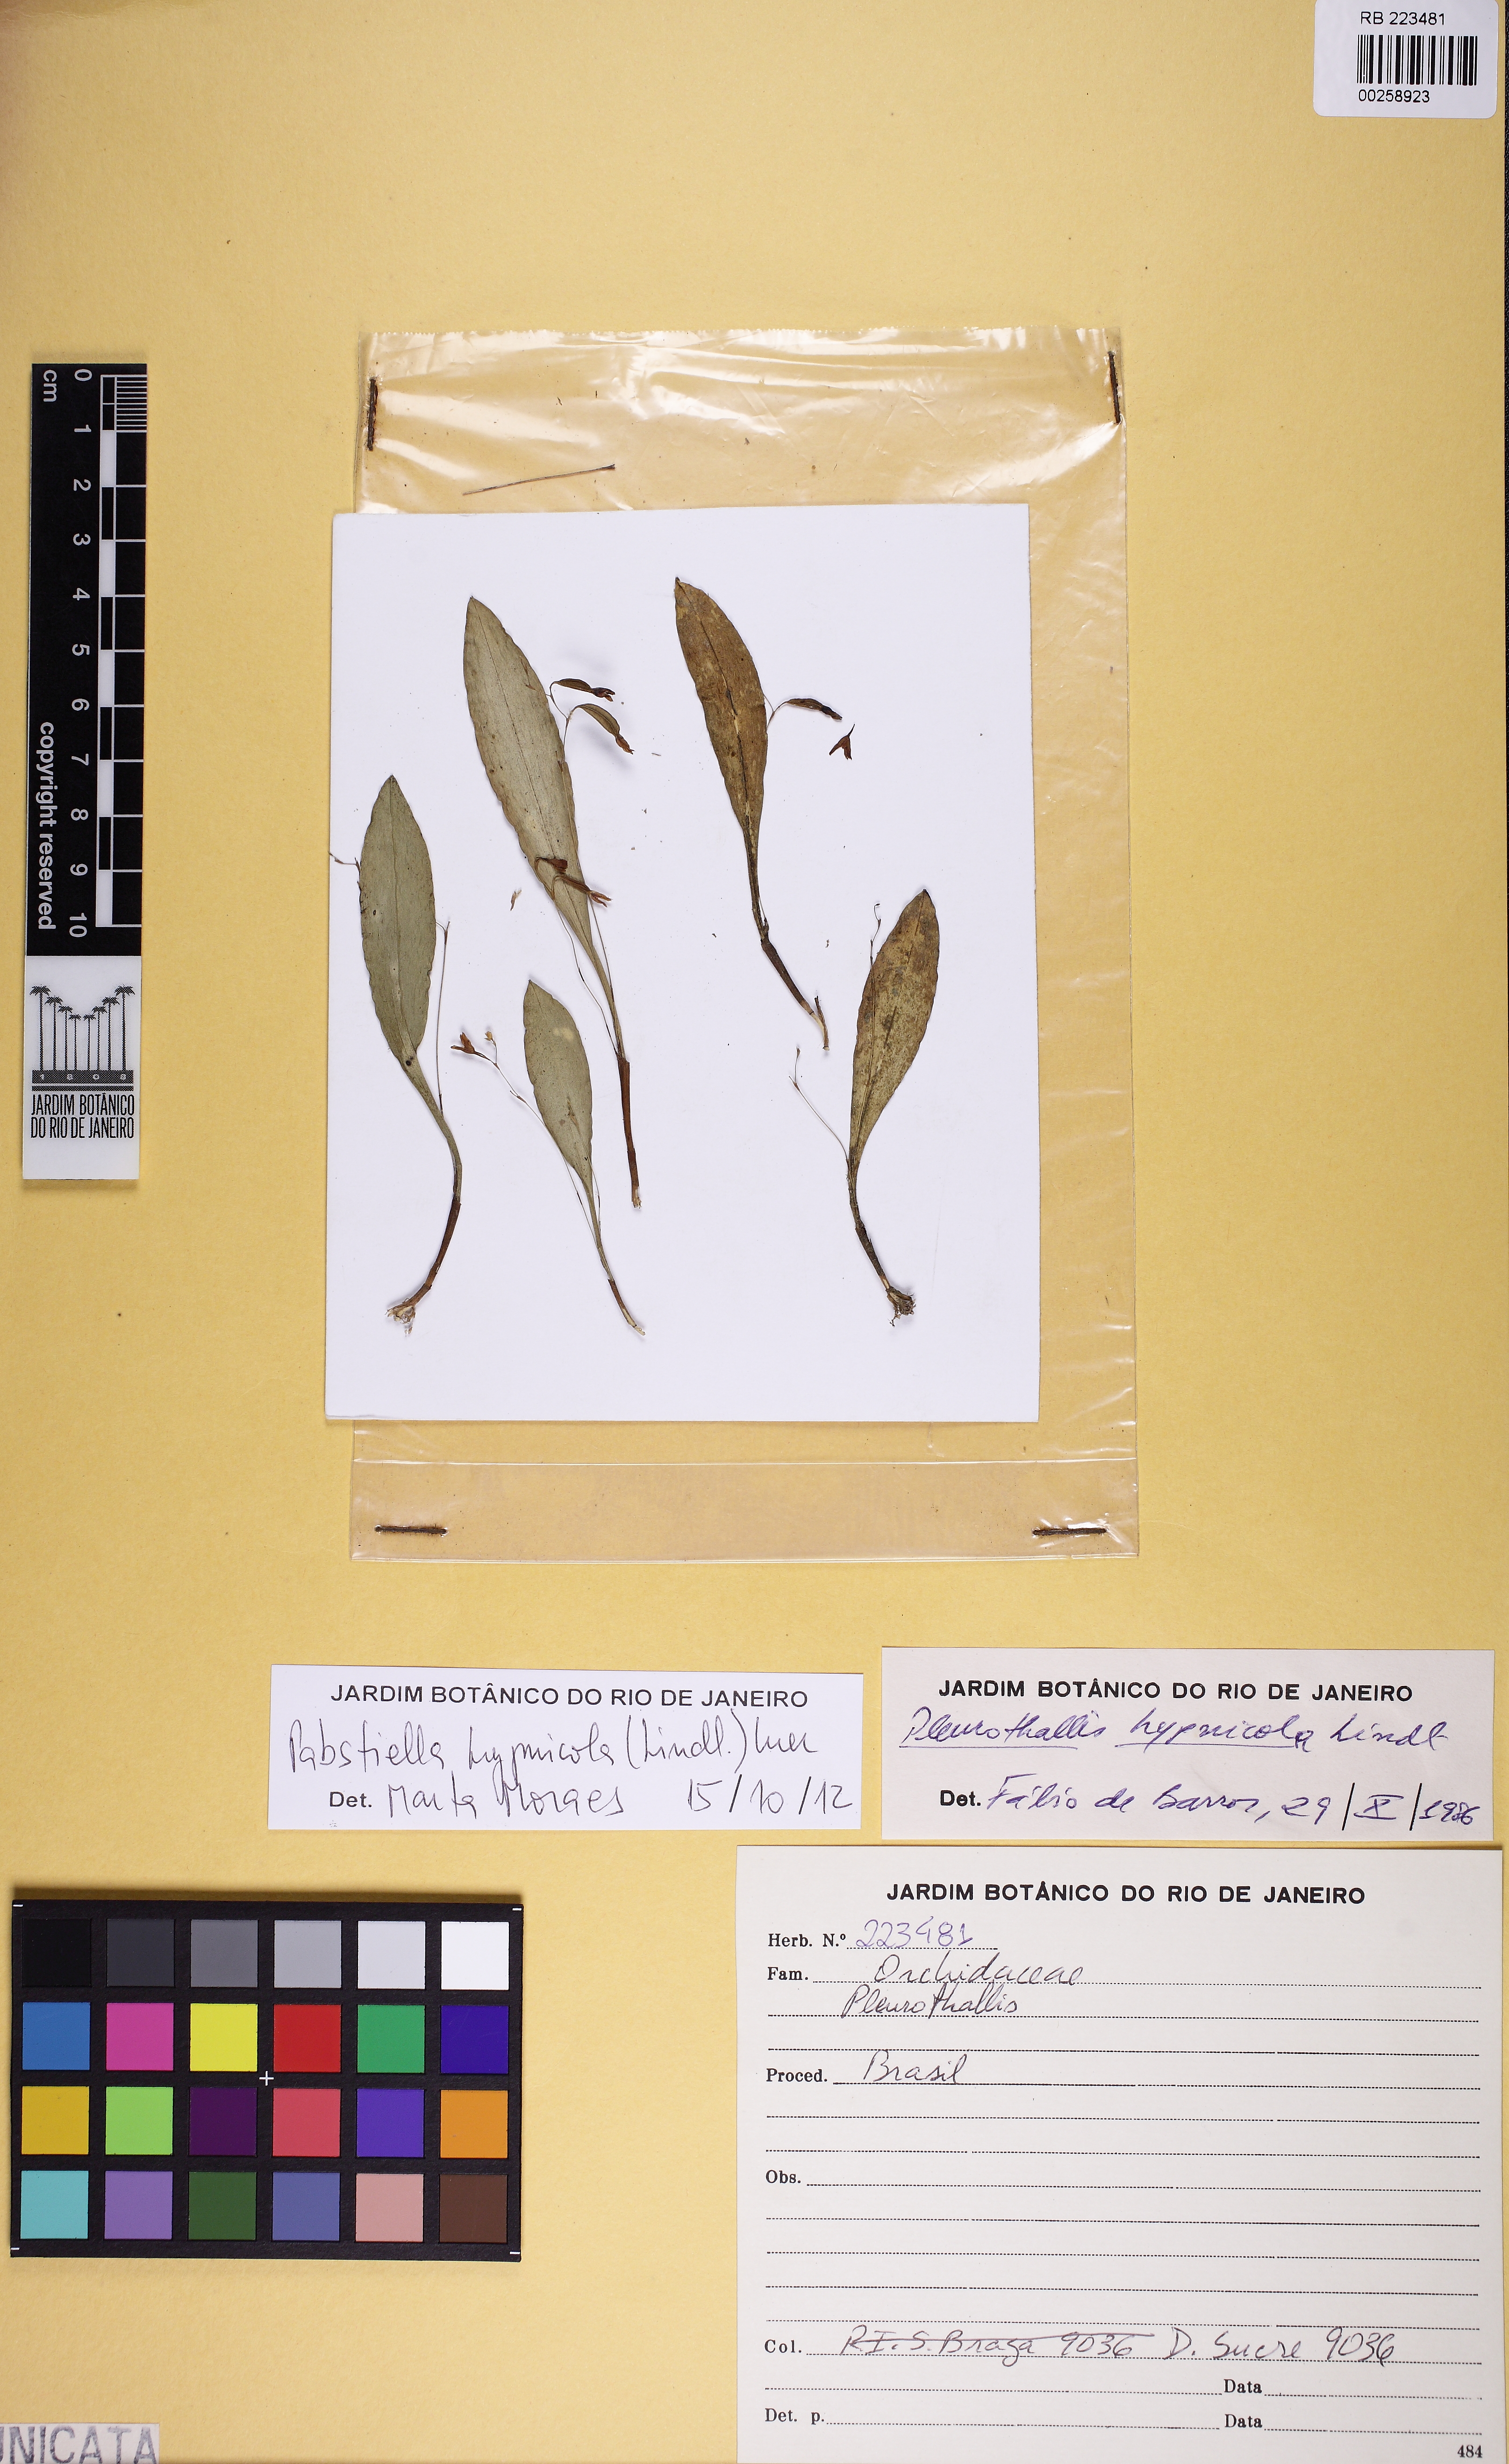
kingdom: Plantae
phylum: Tracheophyta
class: Liliopsida
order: Asparagales
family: Orchidaceae
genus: Pabstiella
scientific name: Pabstiella fusca
